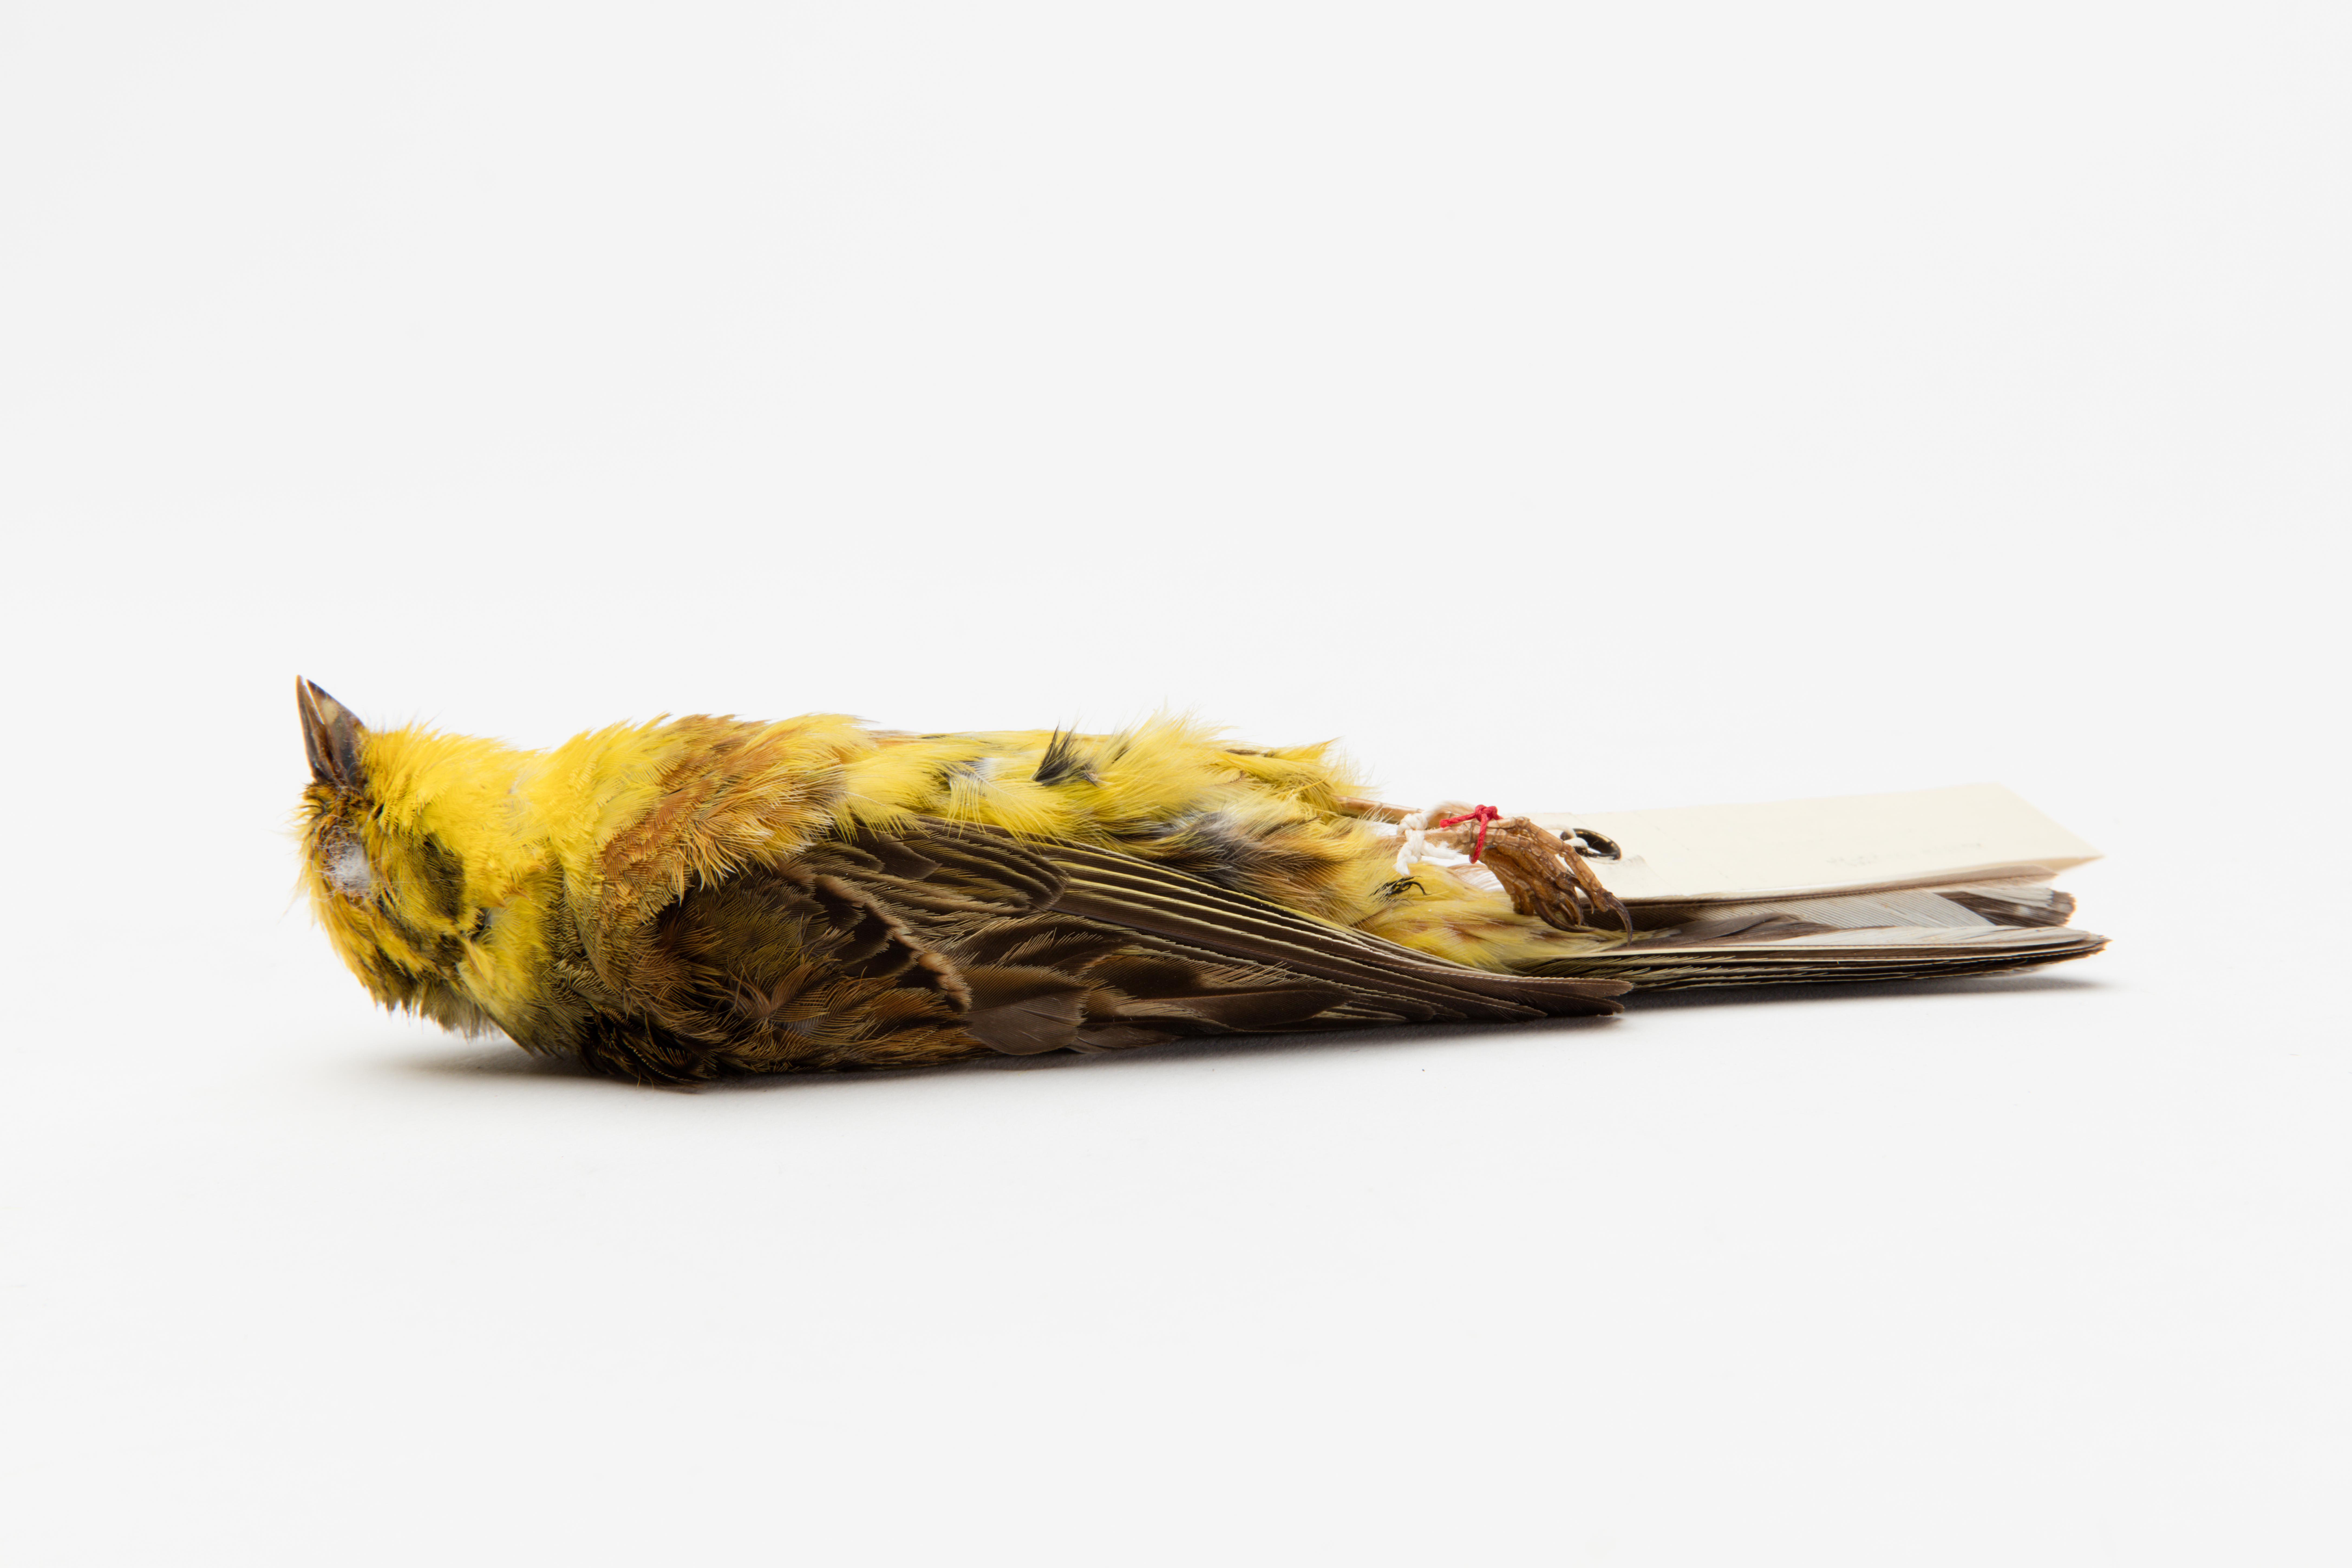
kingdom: Animalia
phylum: Chordata
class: Aves
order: Passeriformes
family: Emberizidae
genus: Emberiza
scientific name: Emberiza citrinella
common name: Yellowhammer
